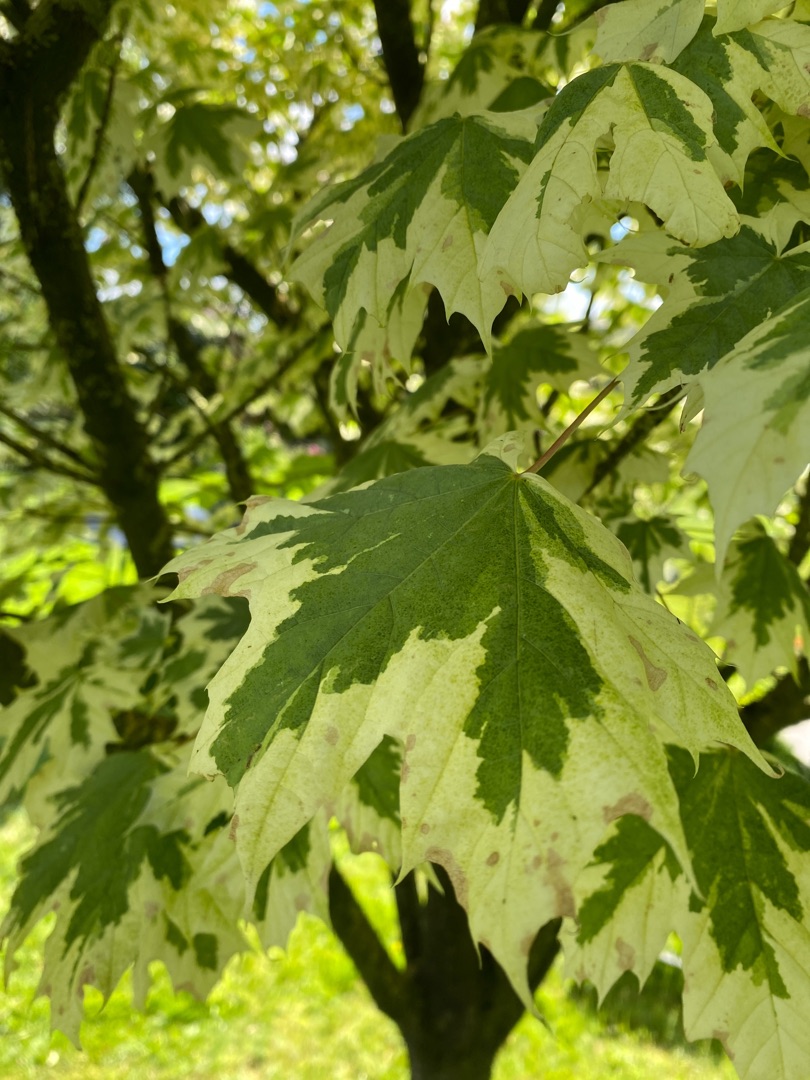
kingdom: Plantae
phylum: Tracheophyta
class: Magnoliopsida
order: Sapindales
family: Sapindaceae
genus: Acer
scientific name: Acer platanoides
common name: Spids-løn
